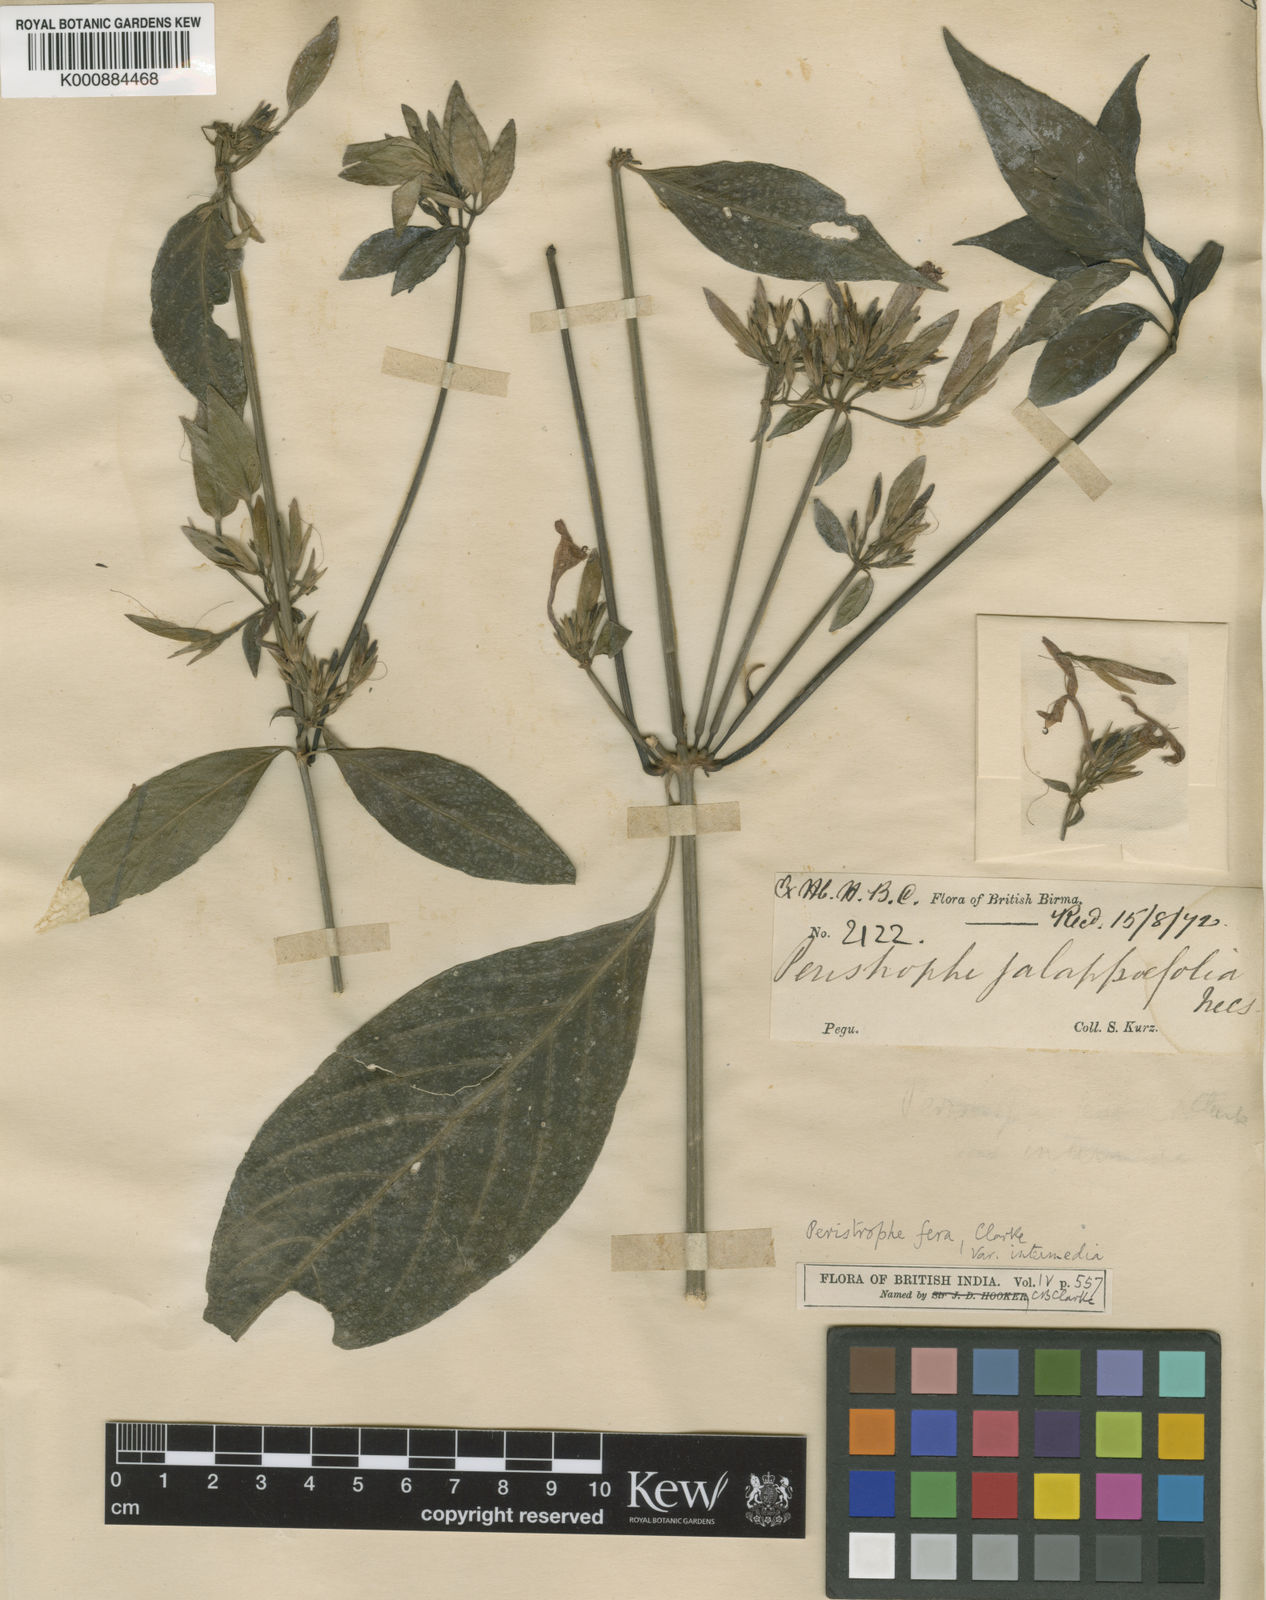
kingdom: Plantae
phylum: Tracheophyta
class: Magnoliopsida
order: Lamiales
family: Acanthaceae
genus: Dicliptera
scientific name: Dicliptera fera
